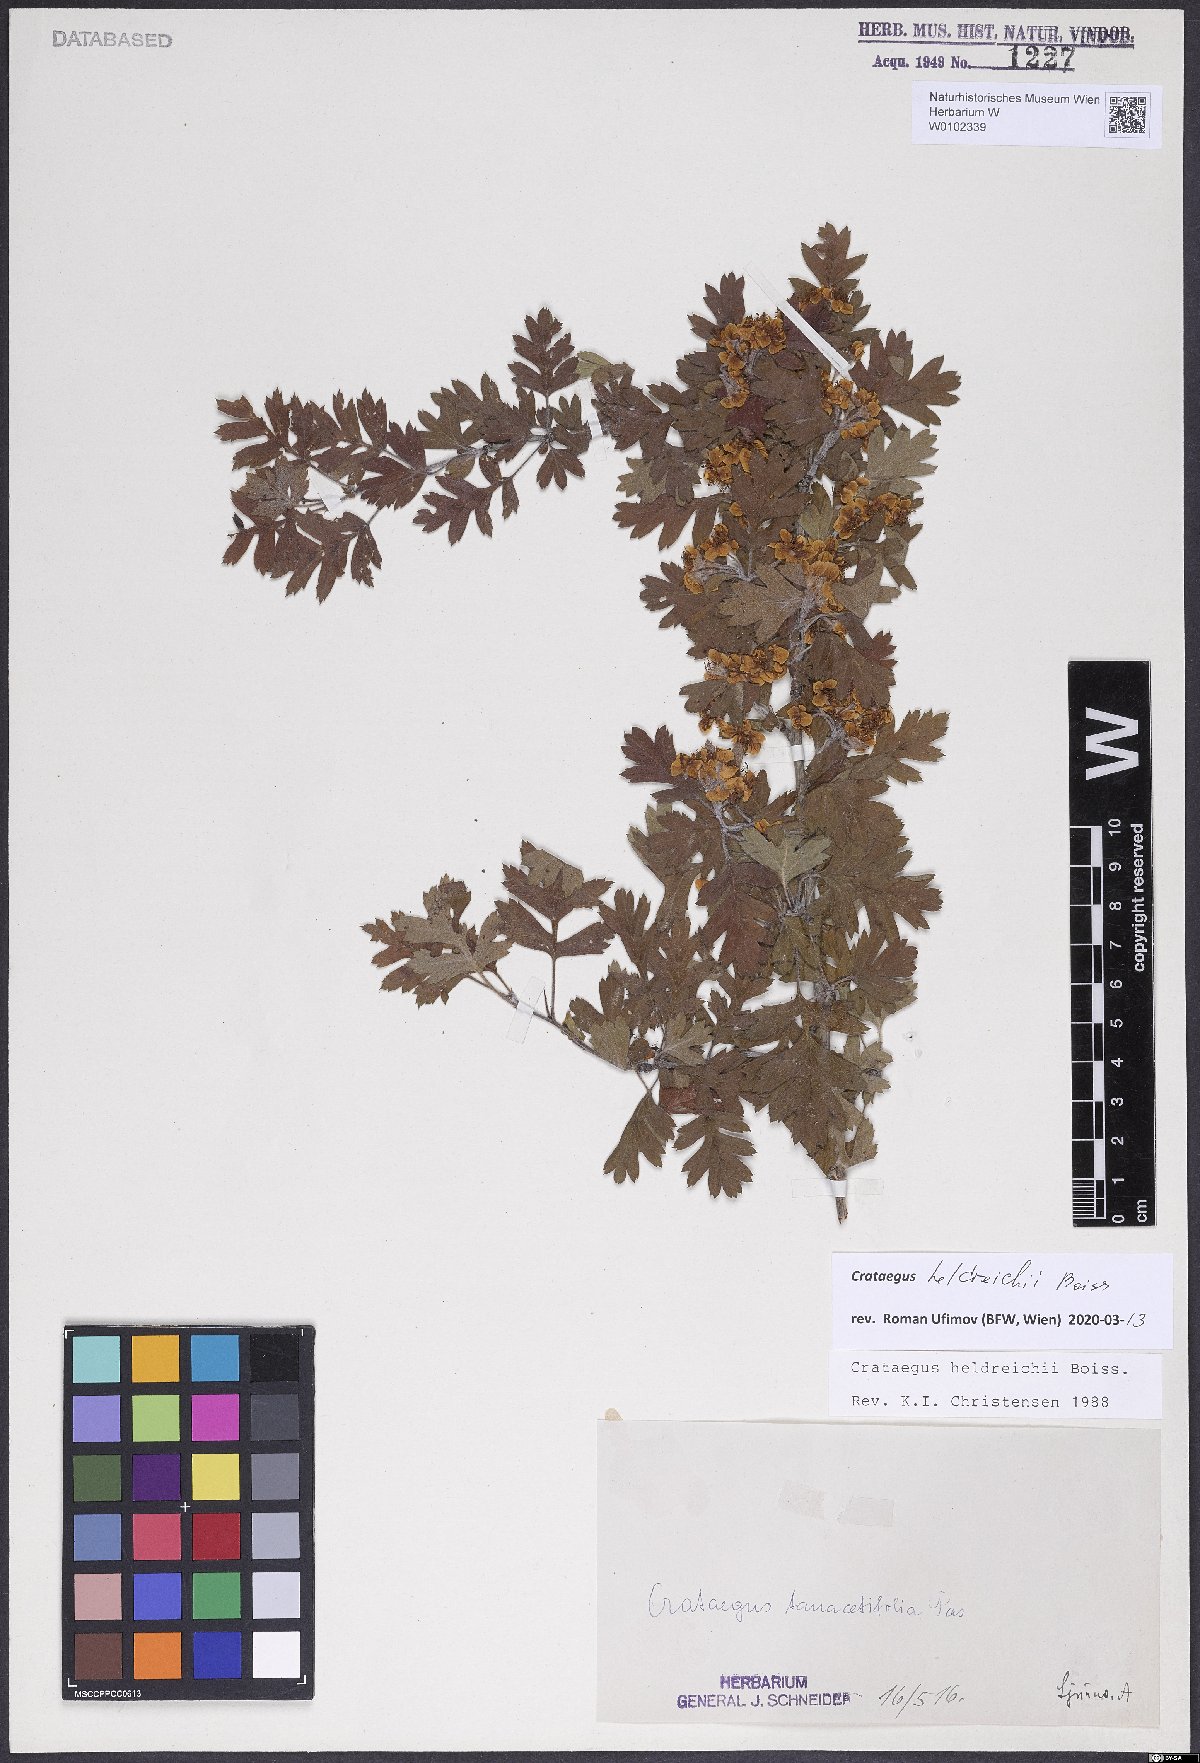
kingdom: Plantae
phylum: Tracheophyta
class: Magnoliopsida
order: Rosales
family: Rosaceae
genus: Crataegus
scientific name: Crataegus heldreichii
